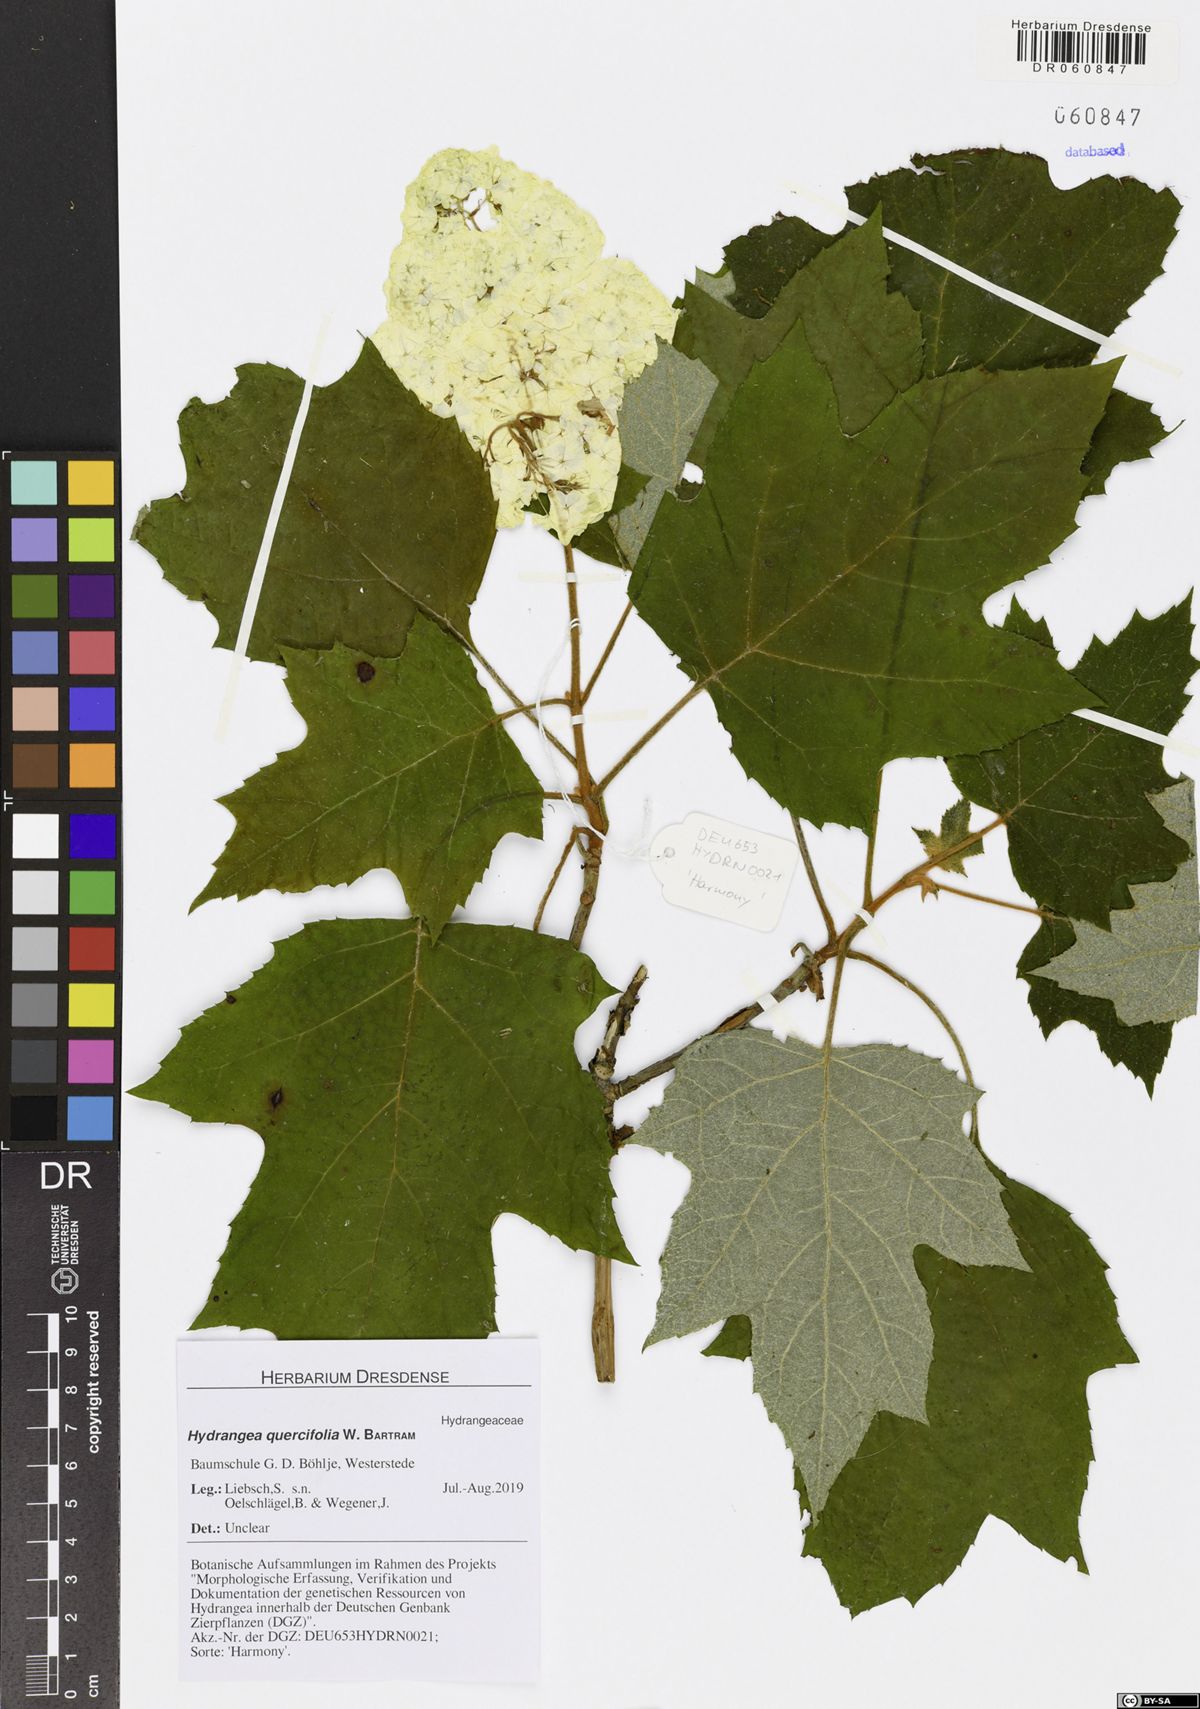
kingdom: Plantae
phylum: Tracheophyta
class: Magnoliopsida
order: Cornales
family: Hydrangeaceae
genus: Hydrangea
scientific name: Hydrangea quercifolia
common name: Oak-leaf hydrangea
